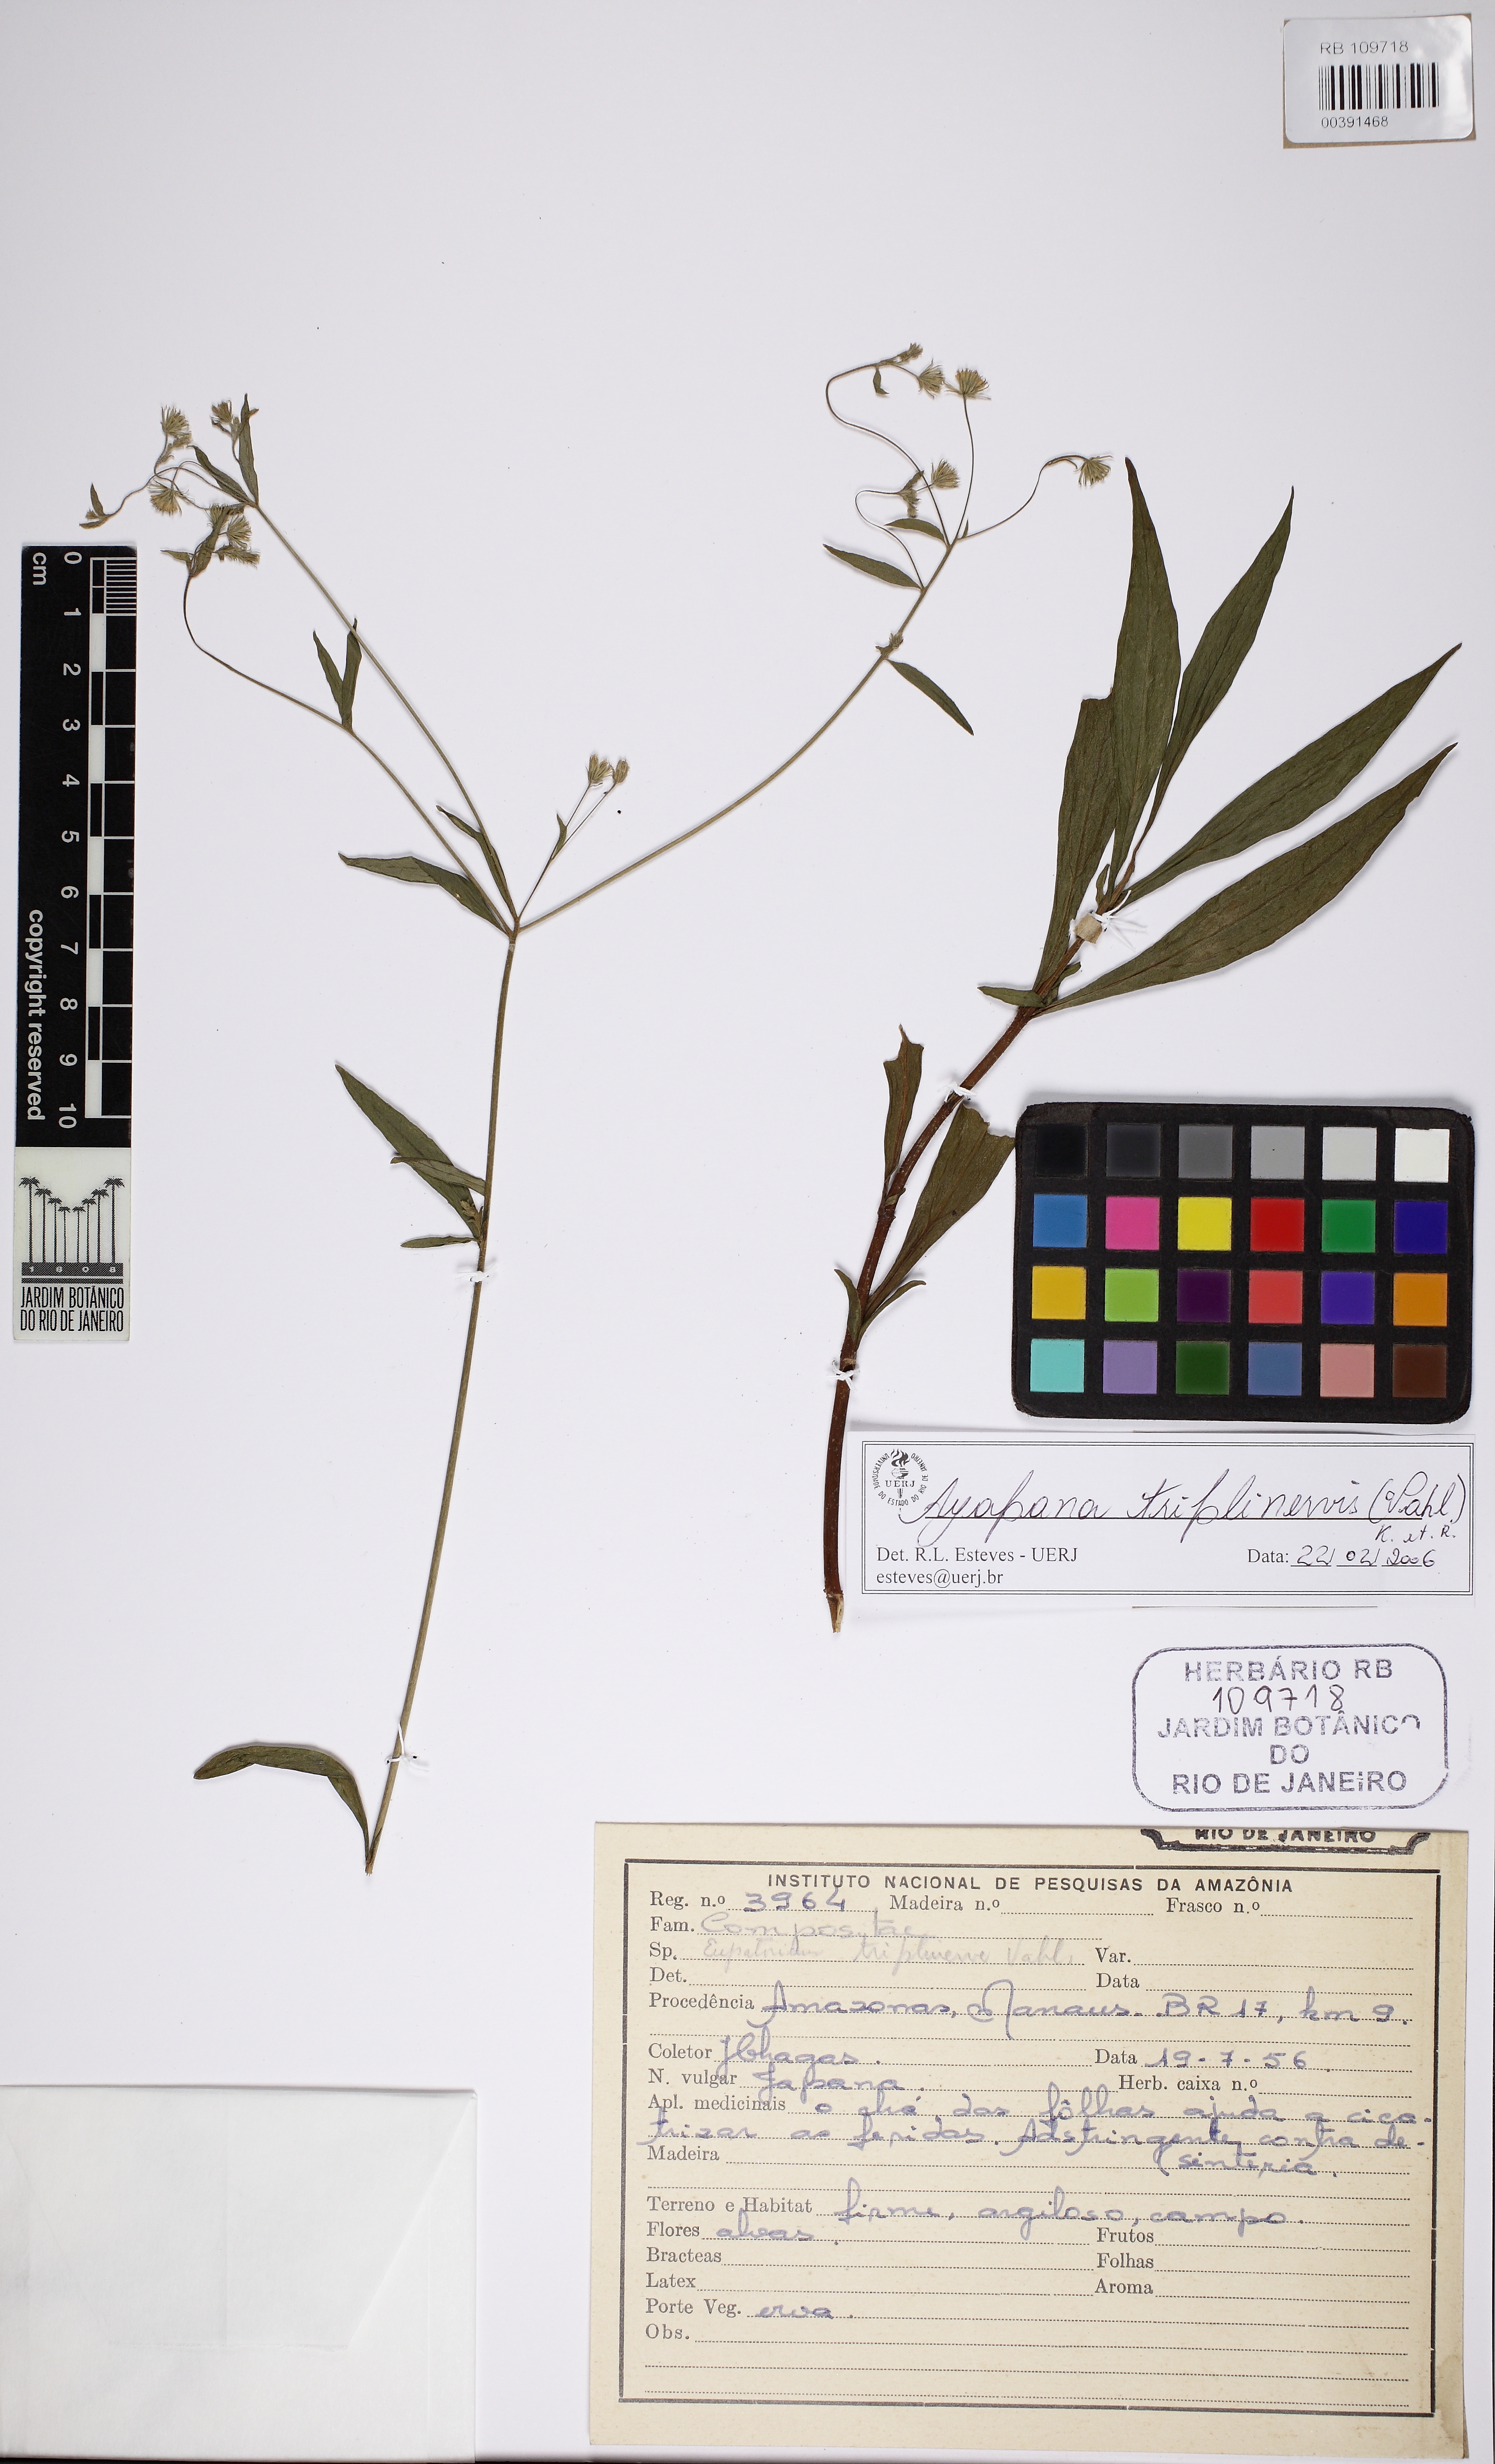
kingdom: Plantae
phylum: Tracheophyta
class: Magnoliopsida
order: Asterales
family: Asteraceae
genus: Ayapana
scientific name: Ayapana triplinervis
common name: Triplinerved eupatorium
